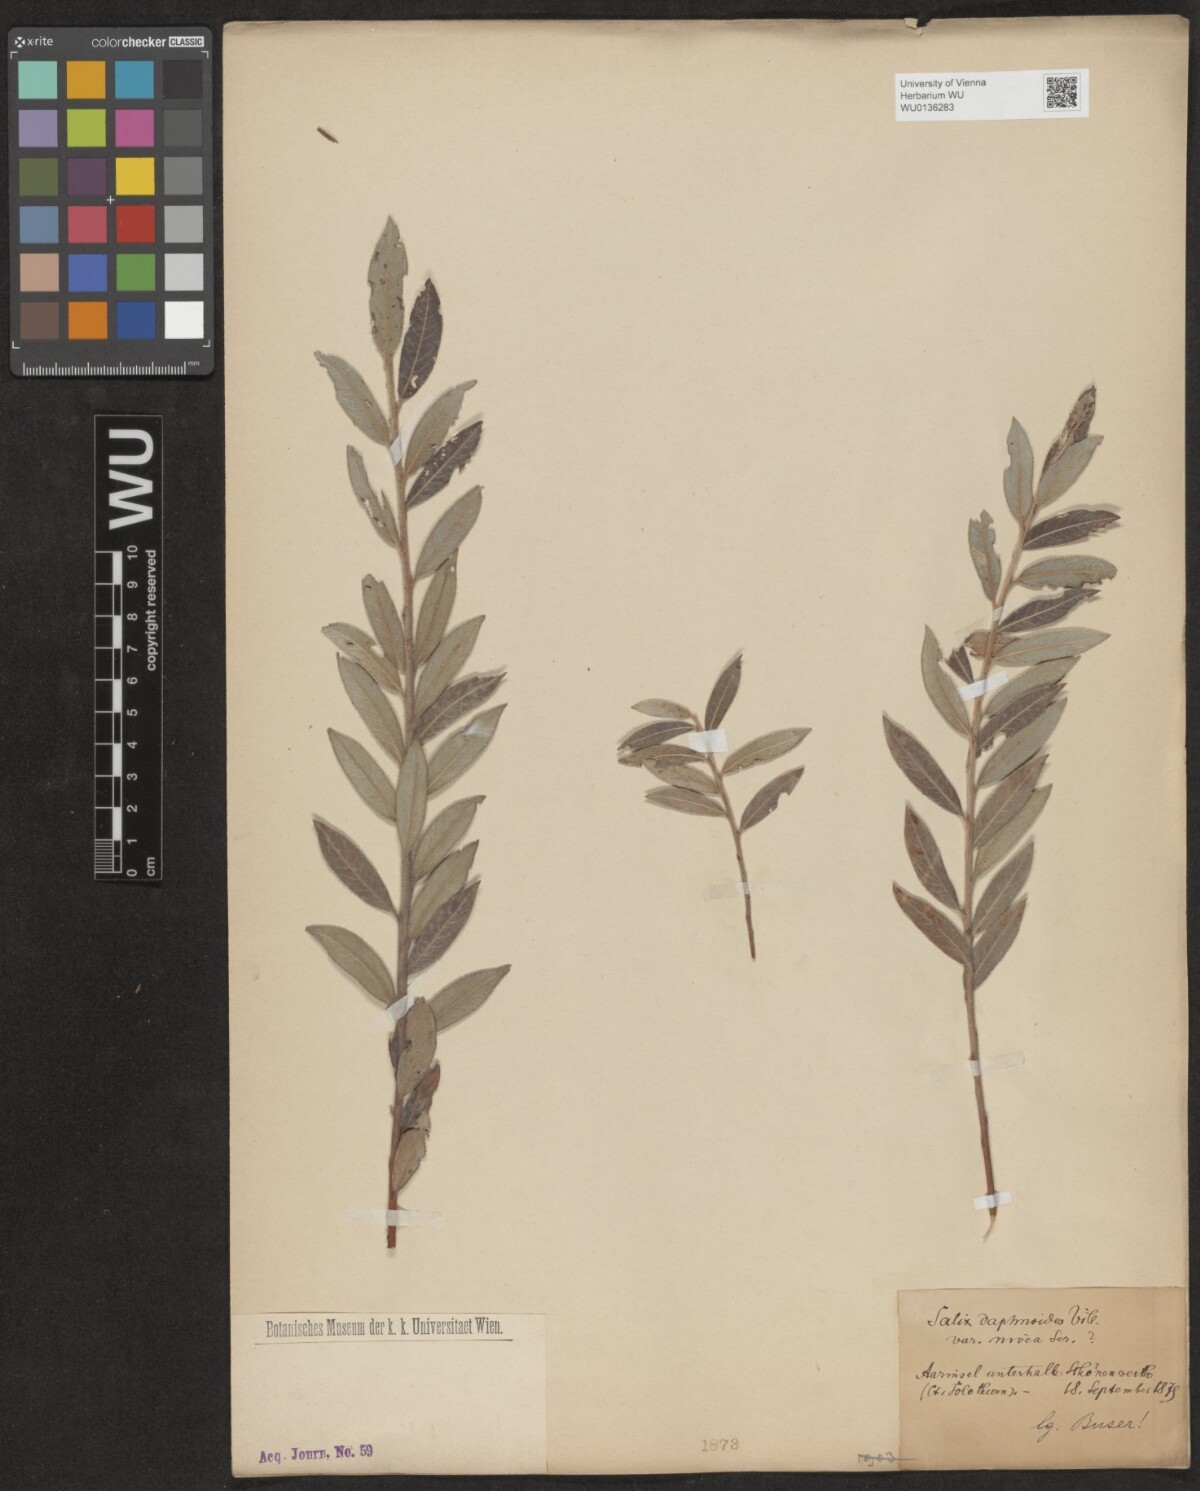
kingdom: Plantae
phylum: Tracheophyta
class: Magnoliopsida
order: Malpighiales
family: Salicaceae
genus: Salix
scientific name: Salix daphnoides
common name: European violet-willow
